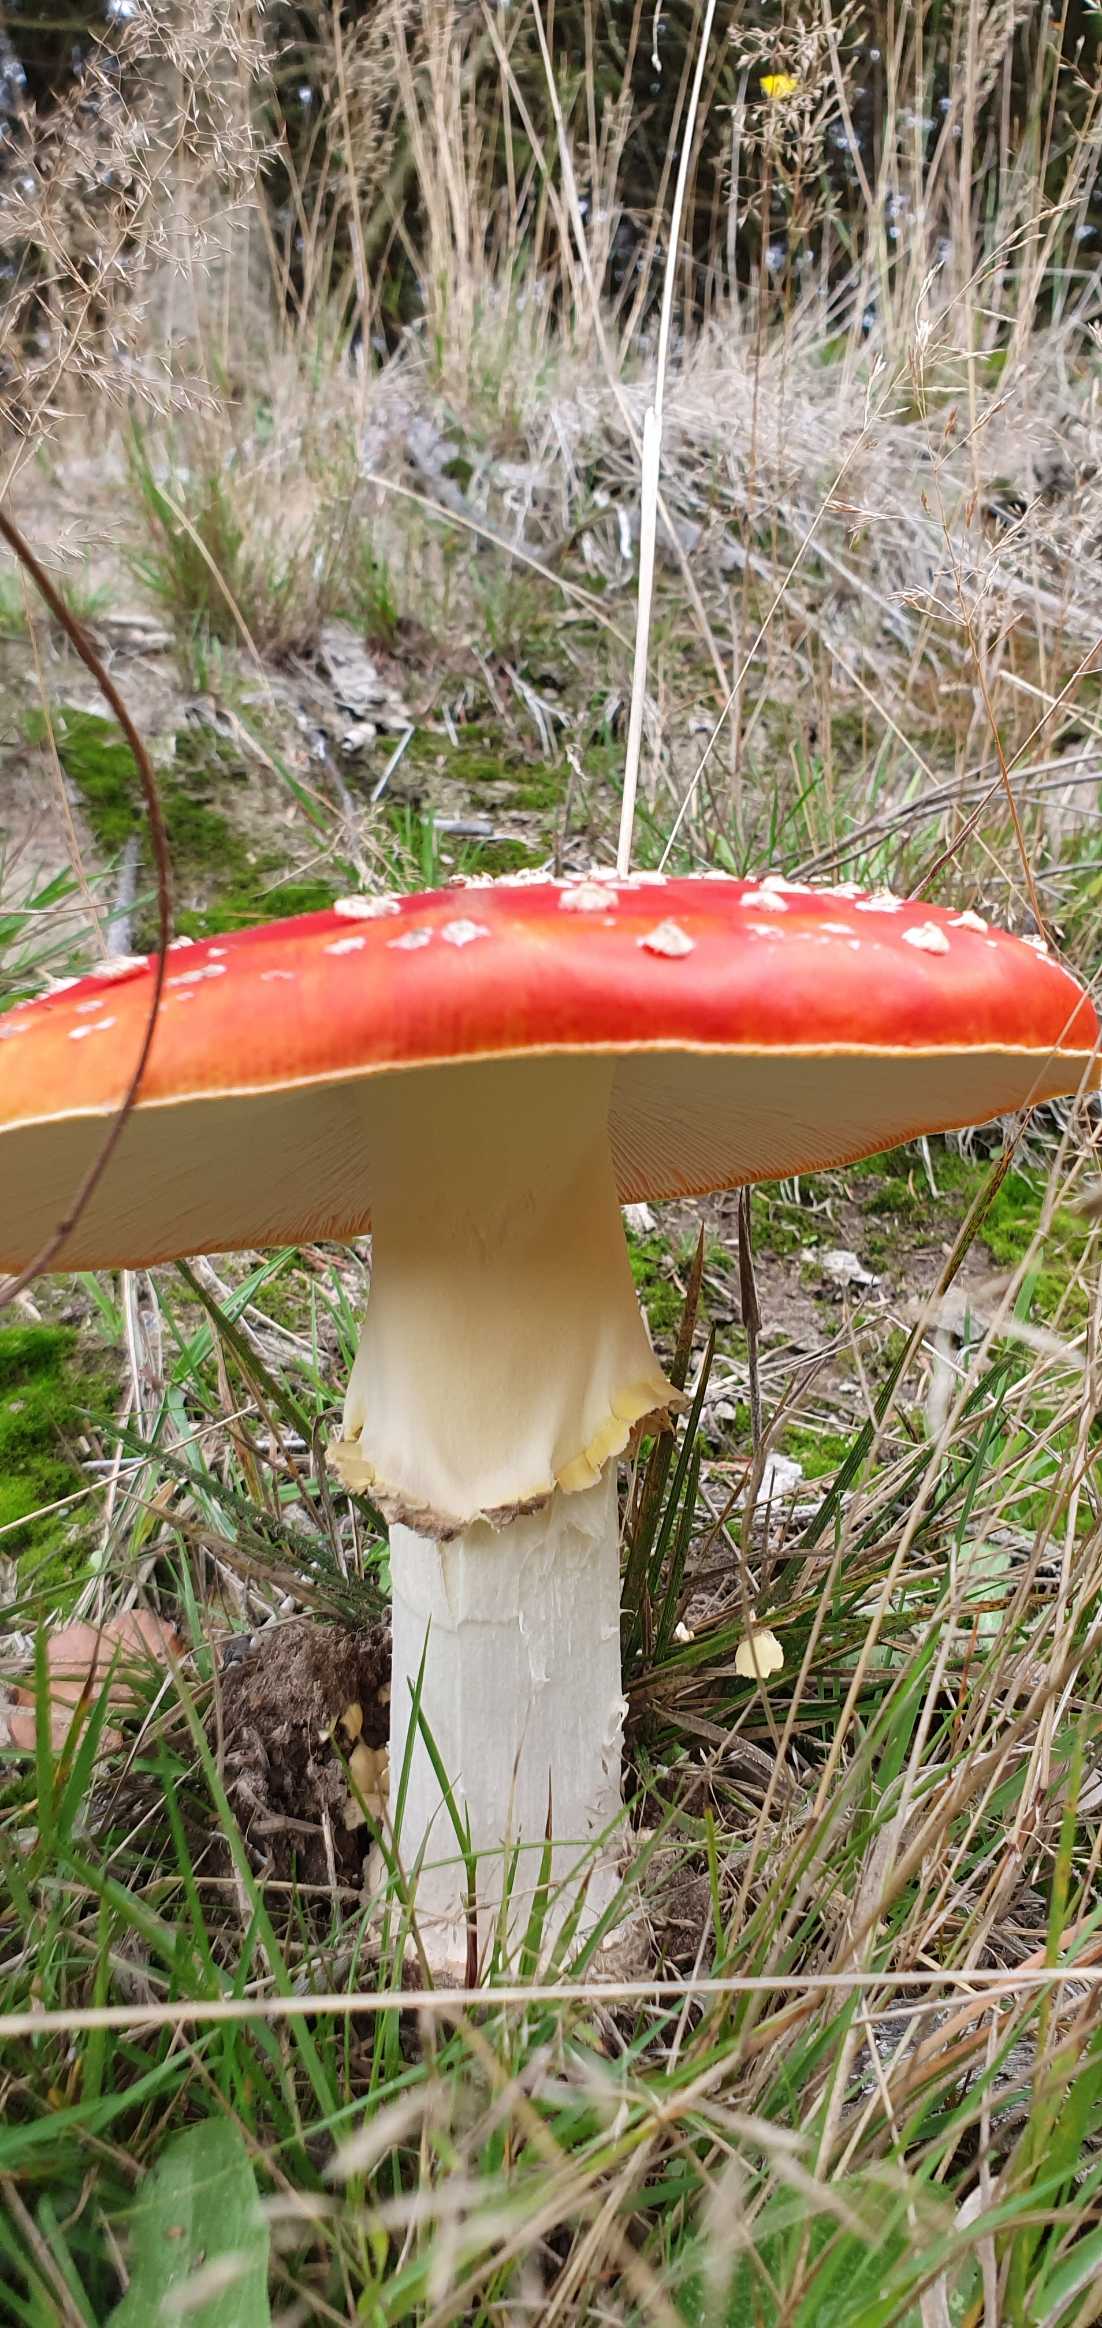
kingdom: Fungi
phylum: Basidiomycota
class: Agaricomycetes
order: Agaricales
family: Amanitaceae
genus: Amanita
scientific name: Amanita muscaria
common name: Rød fluesvamp
